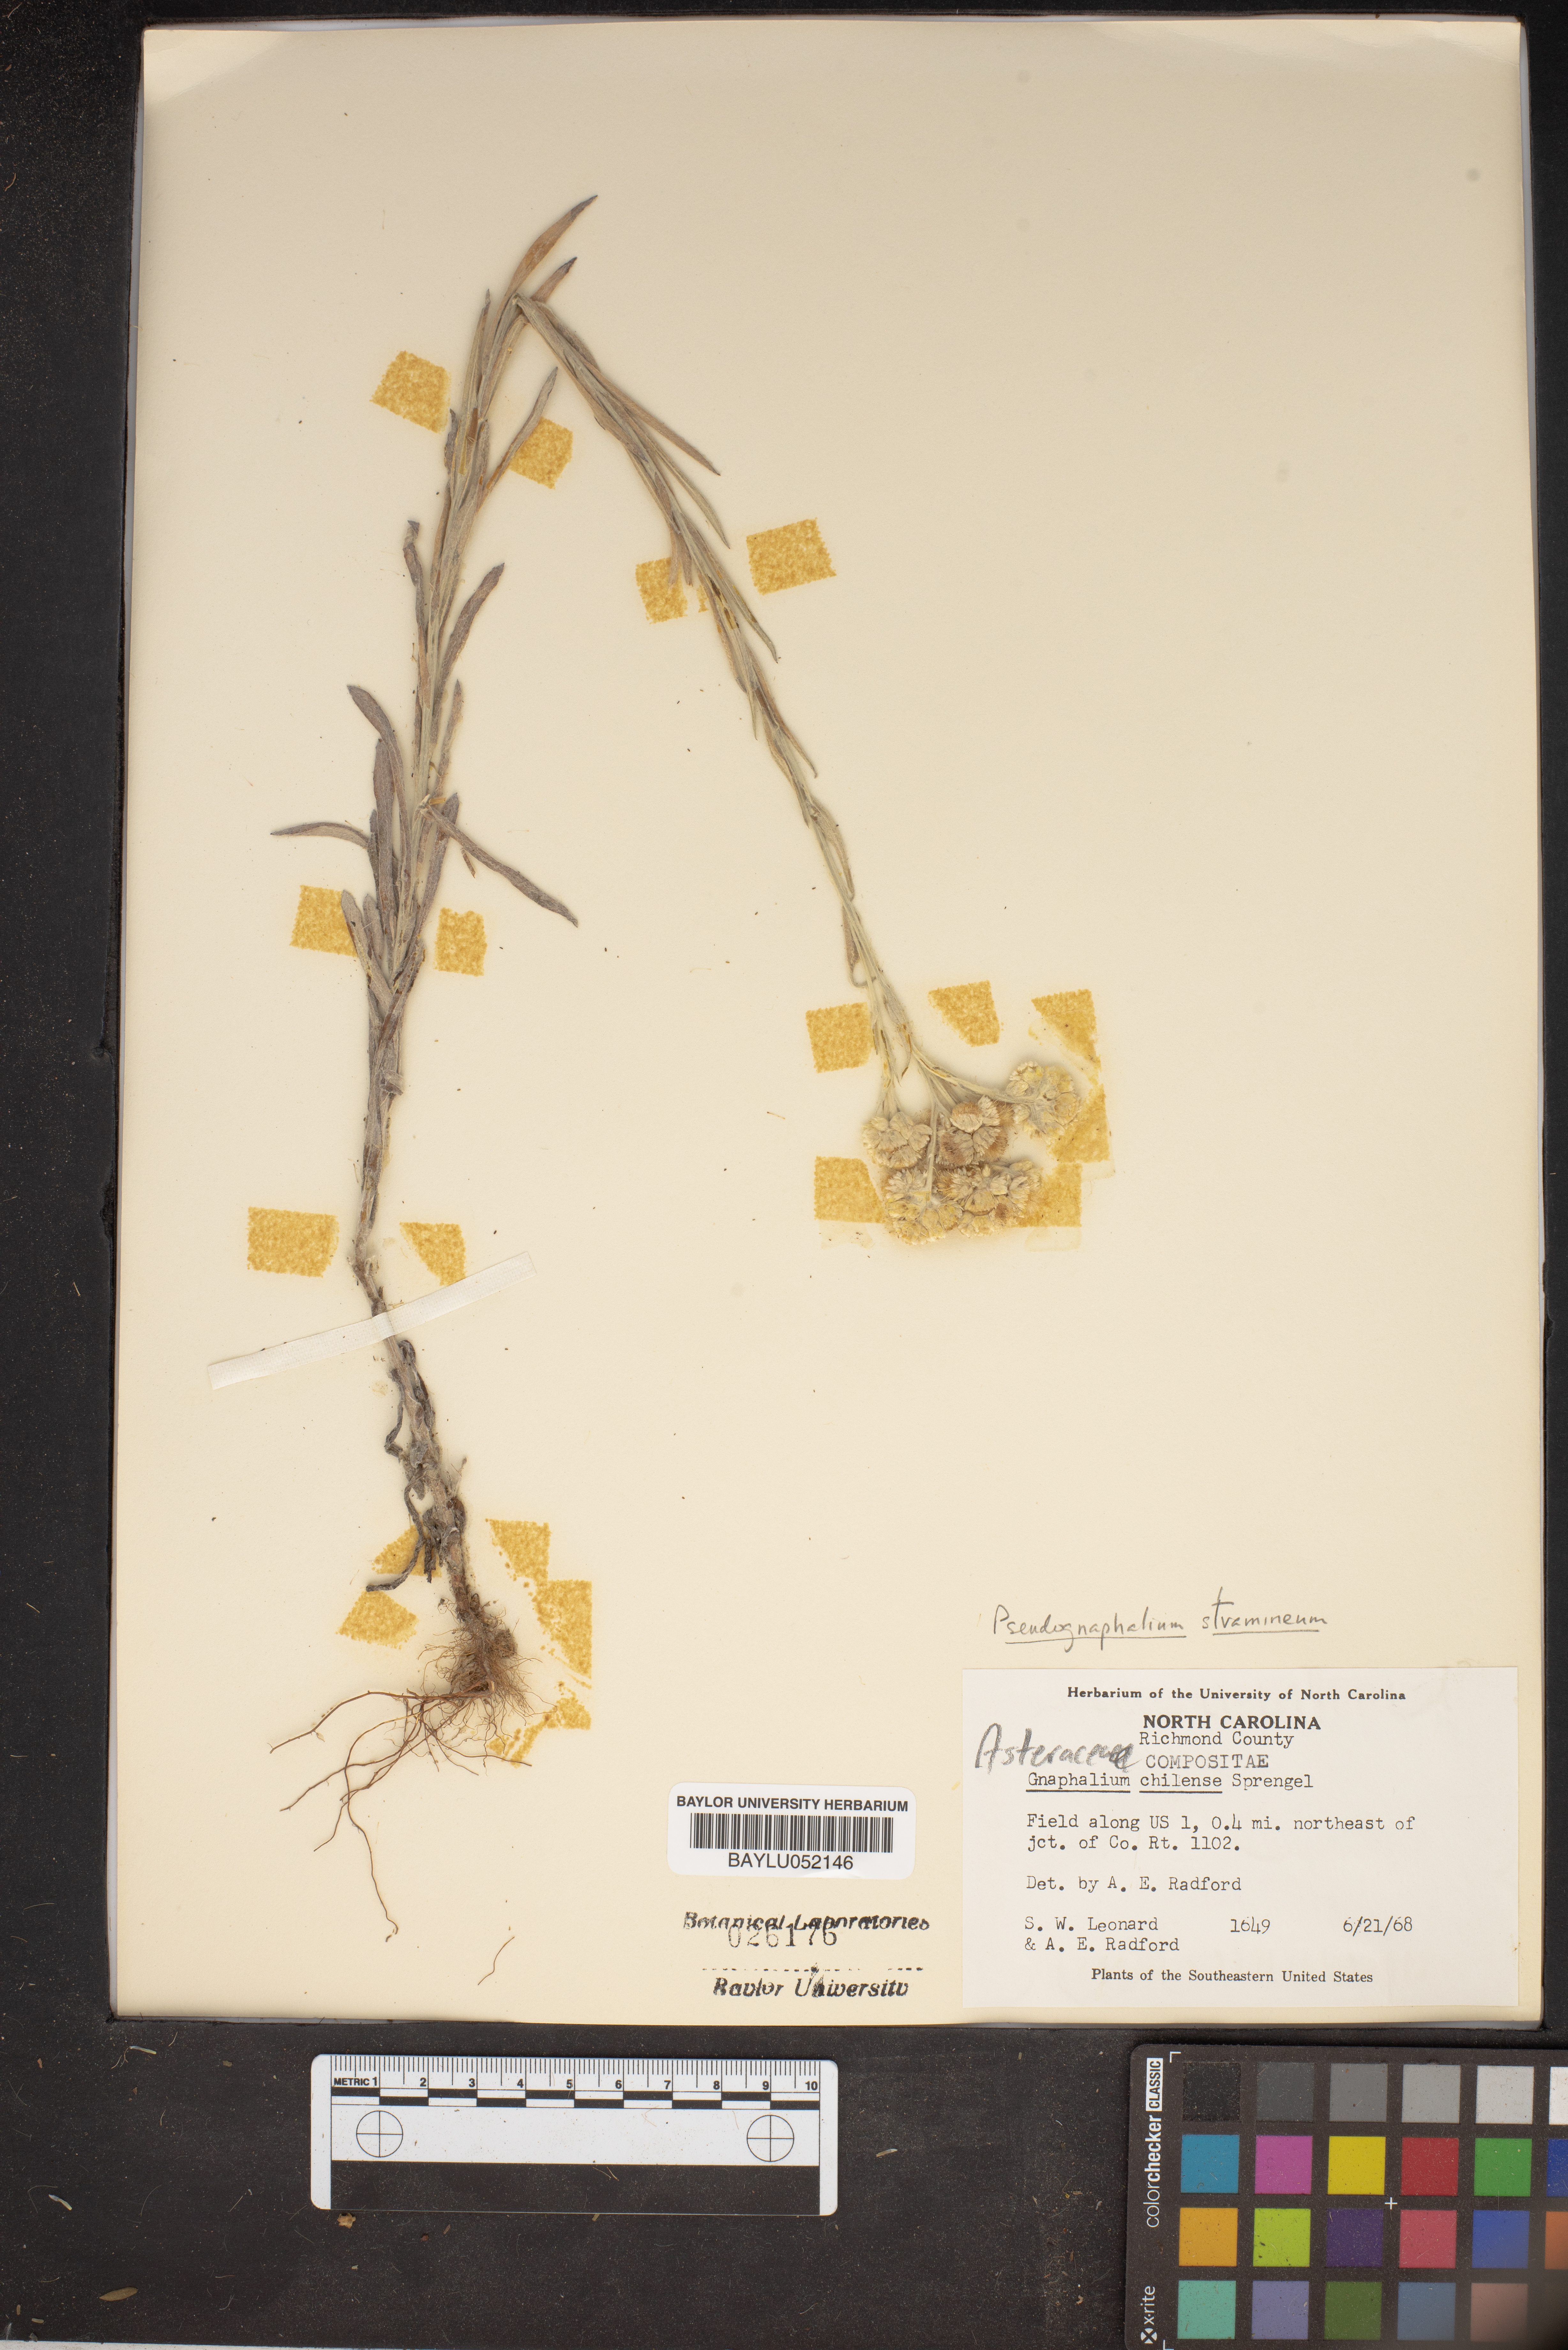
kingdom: Plantae
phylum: Tracheophyta
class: Magnoliopsida
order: Asterales
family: Asteraceae
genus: Pseudognaphalium
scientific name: Pseudognaphalium montevidense
